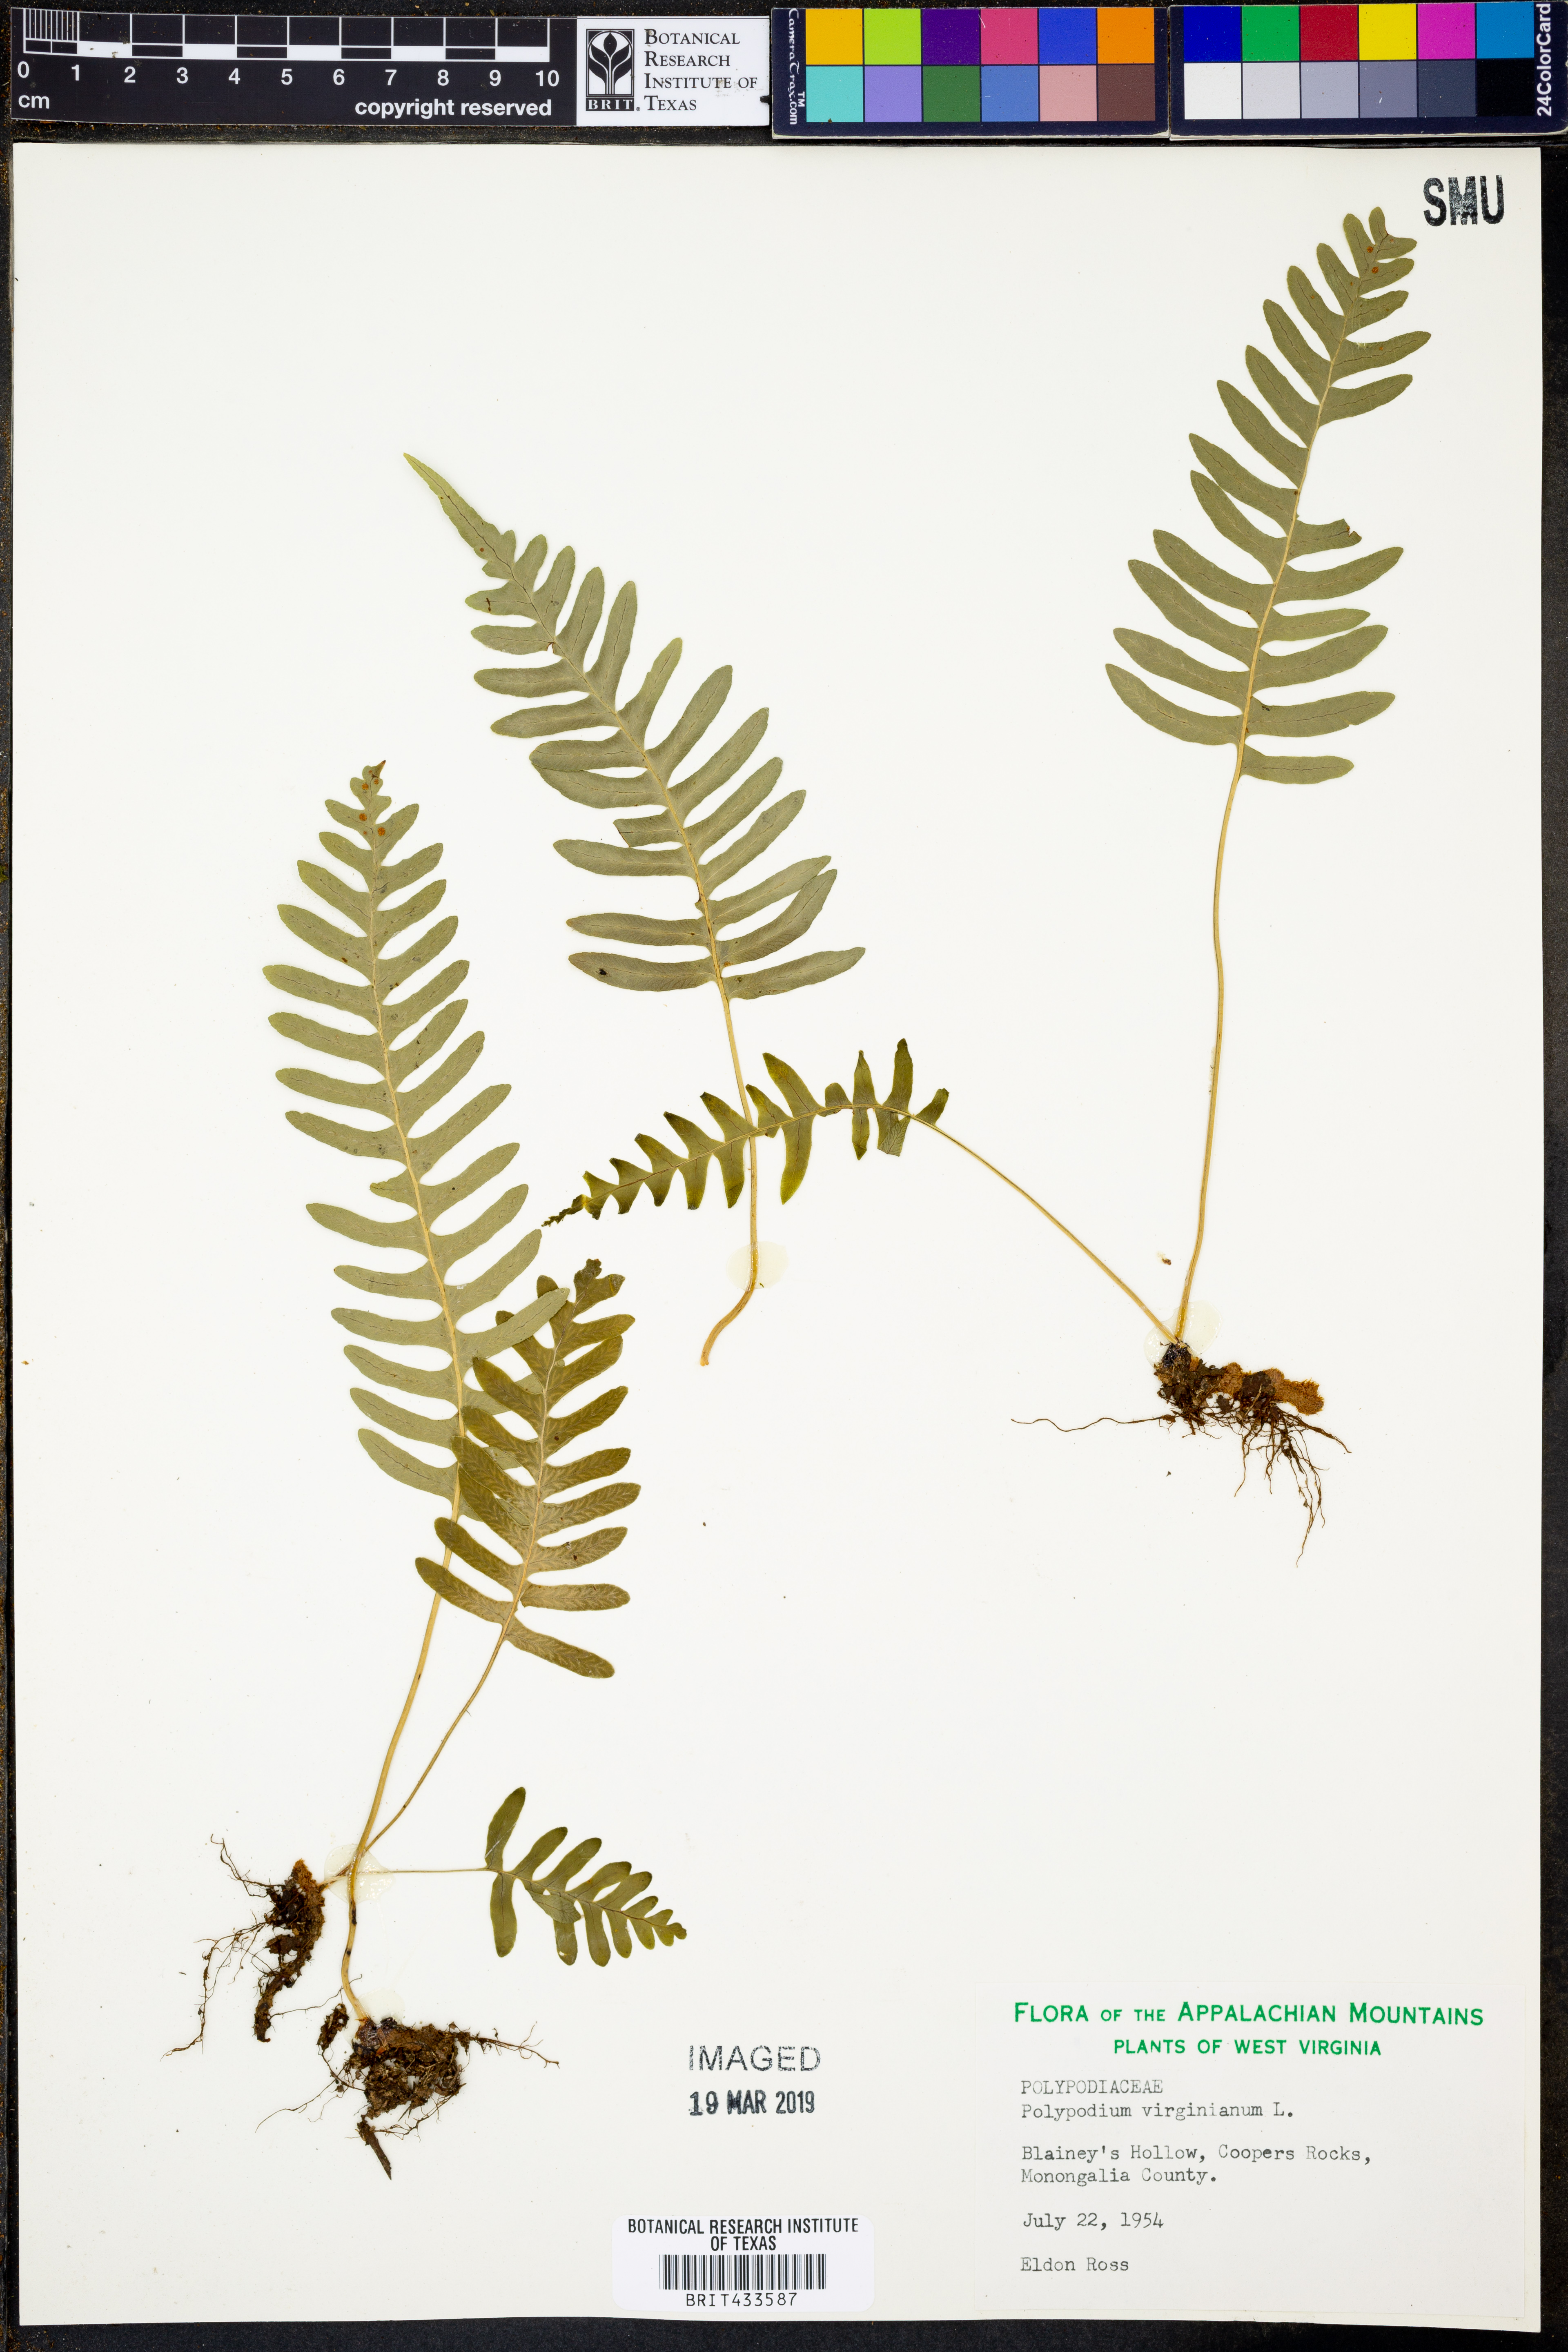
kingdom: Plantae
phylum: Tracheophyta
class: Polypodiopsida
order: Polypodiales
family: Polypodiaceae
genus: Polypodium
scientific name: Polypodium virginianum
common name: American wall fern
